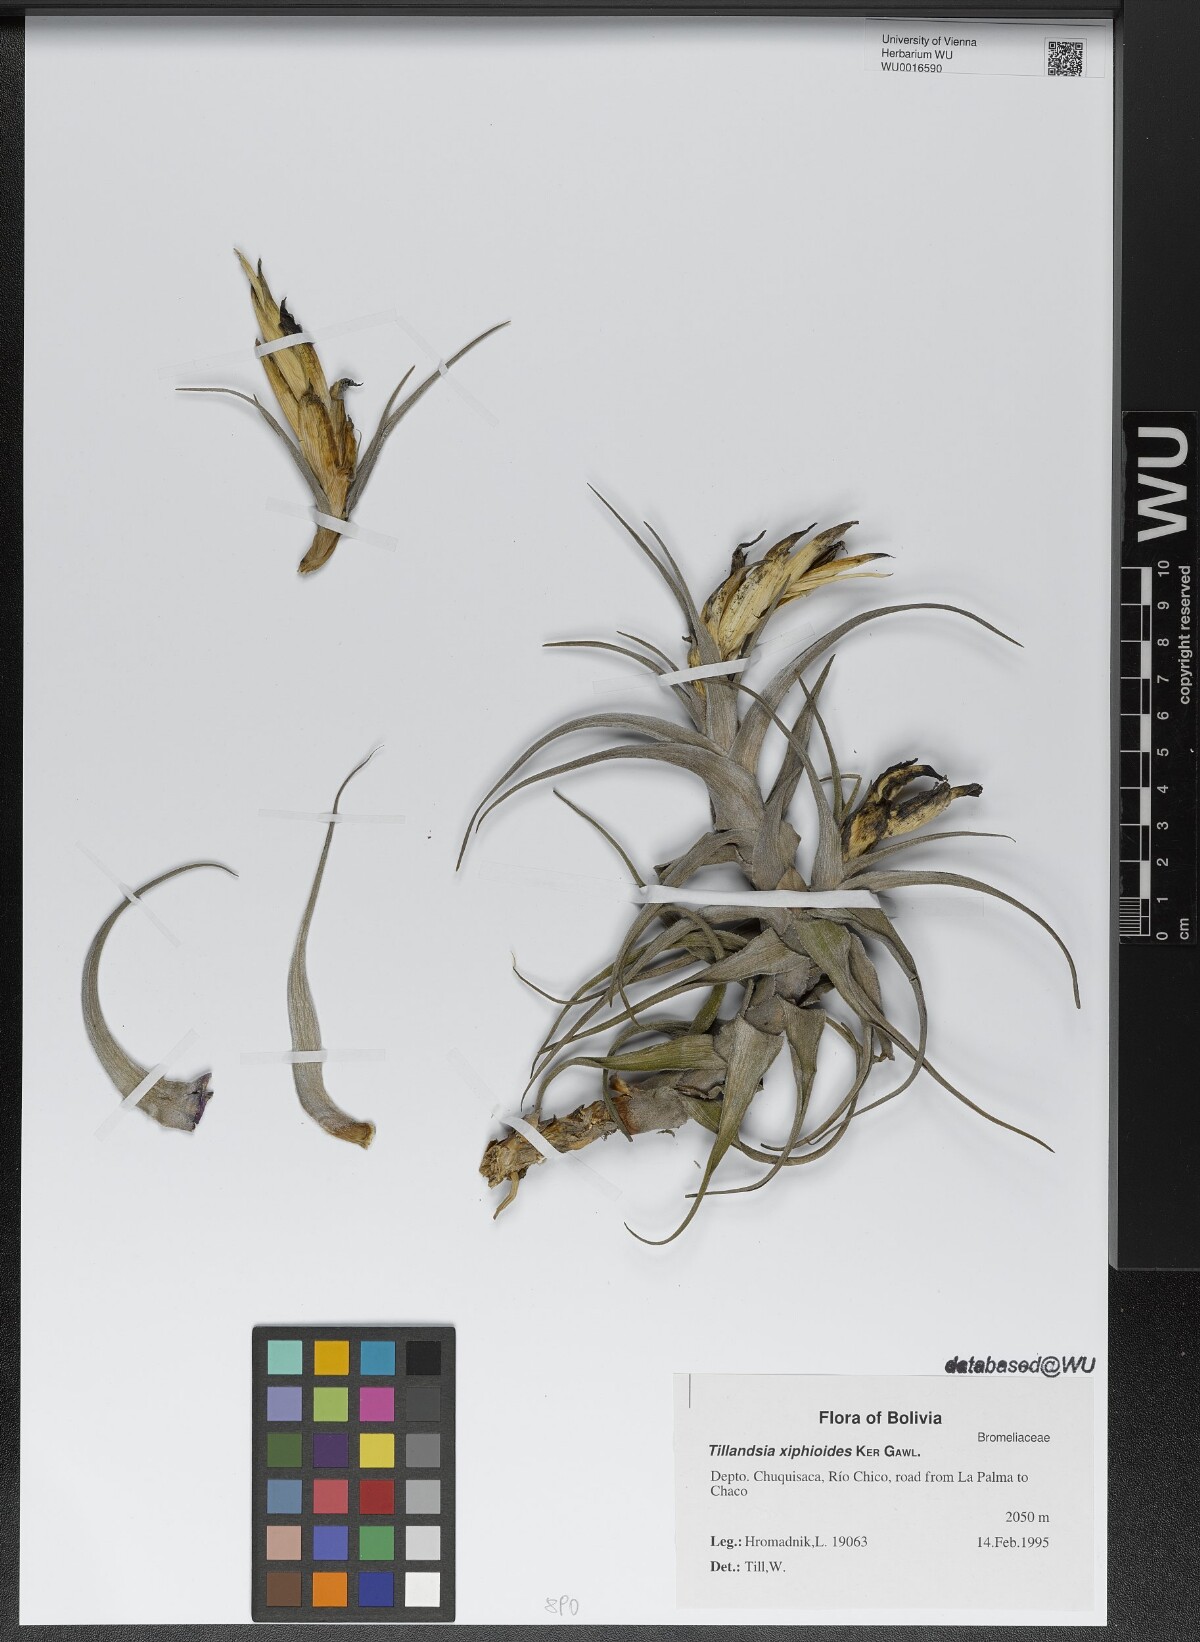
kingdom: Plantae
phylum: Tracheophyta
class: Liliopsida
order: Poales
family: Bromeliaceae
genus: Tillandsia
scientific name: Tillandsia xiphioides
